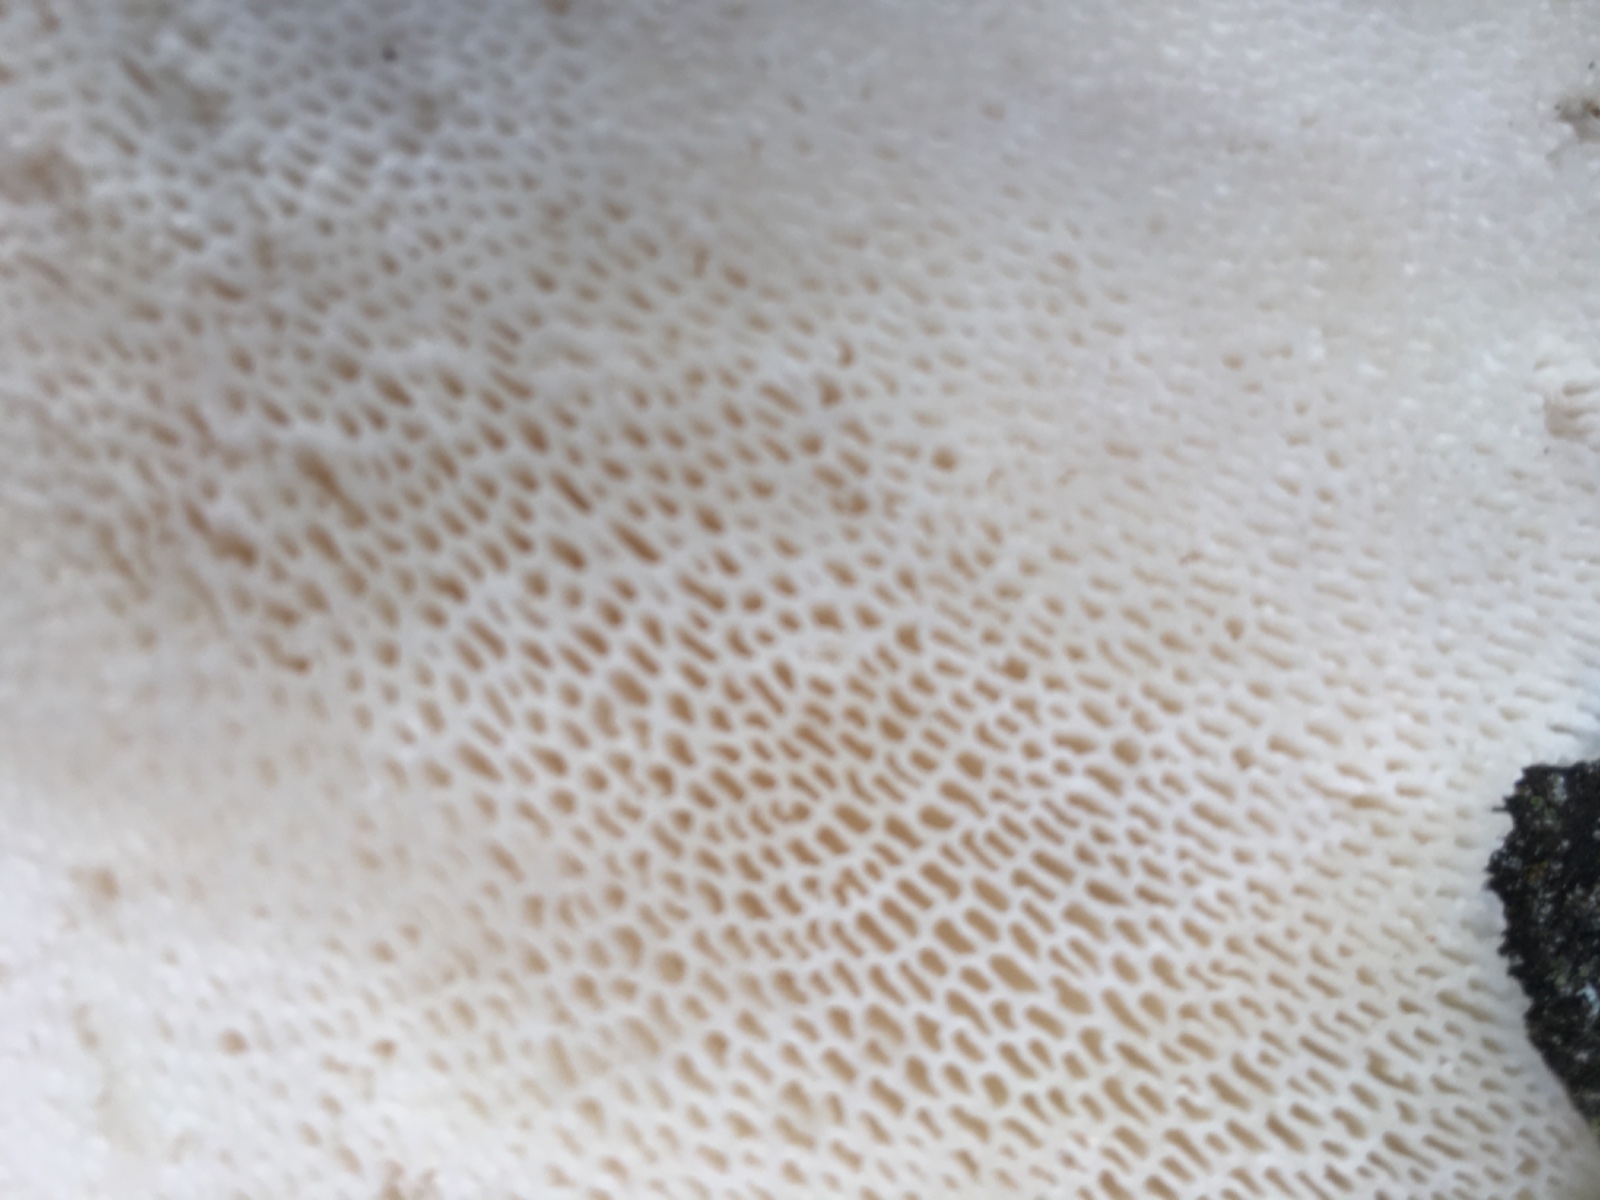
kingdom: Fungi
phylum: Basidiomycota
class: Agaricomycetes
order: Polyporales
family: Polyporaceae
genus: Cerioporus
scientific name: Cerioporus squamosus
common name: skællet stilkporesvamp
